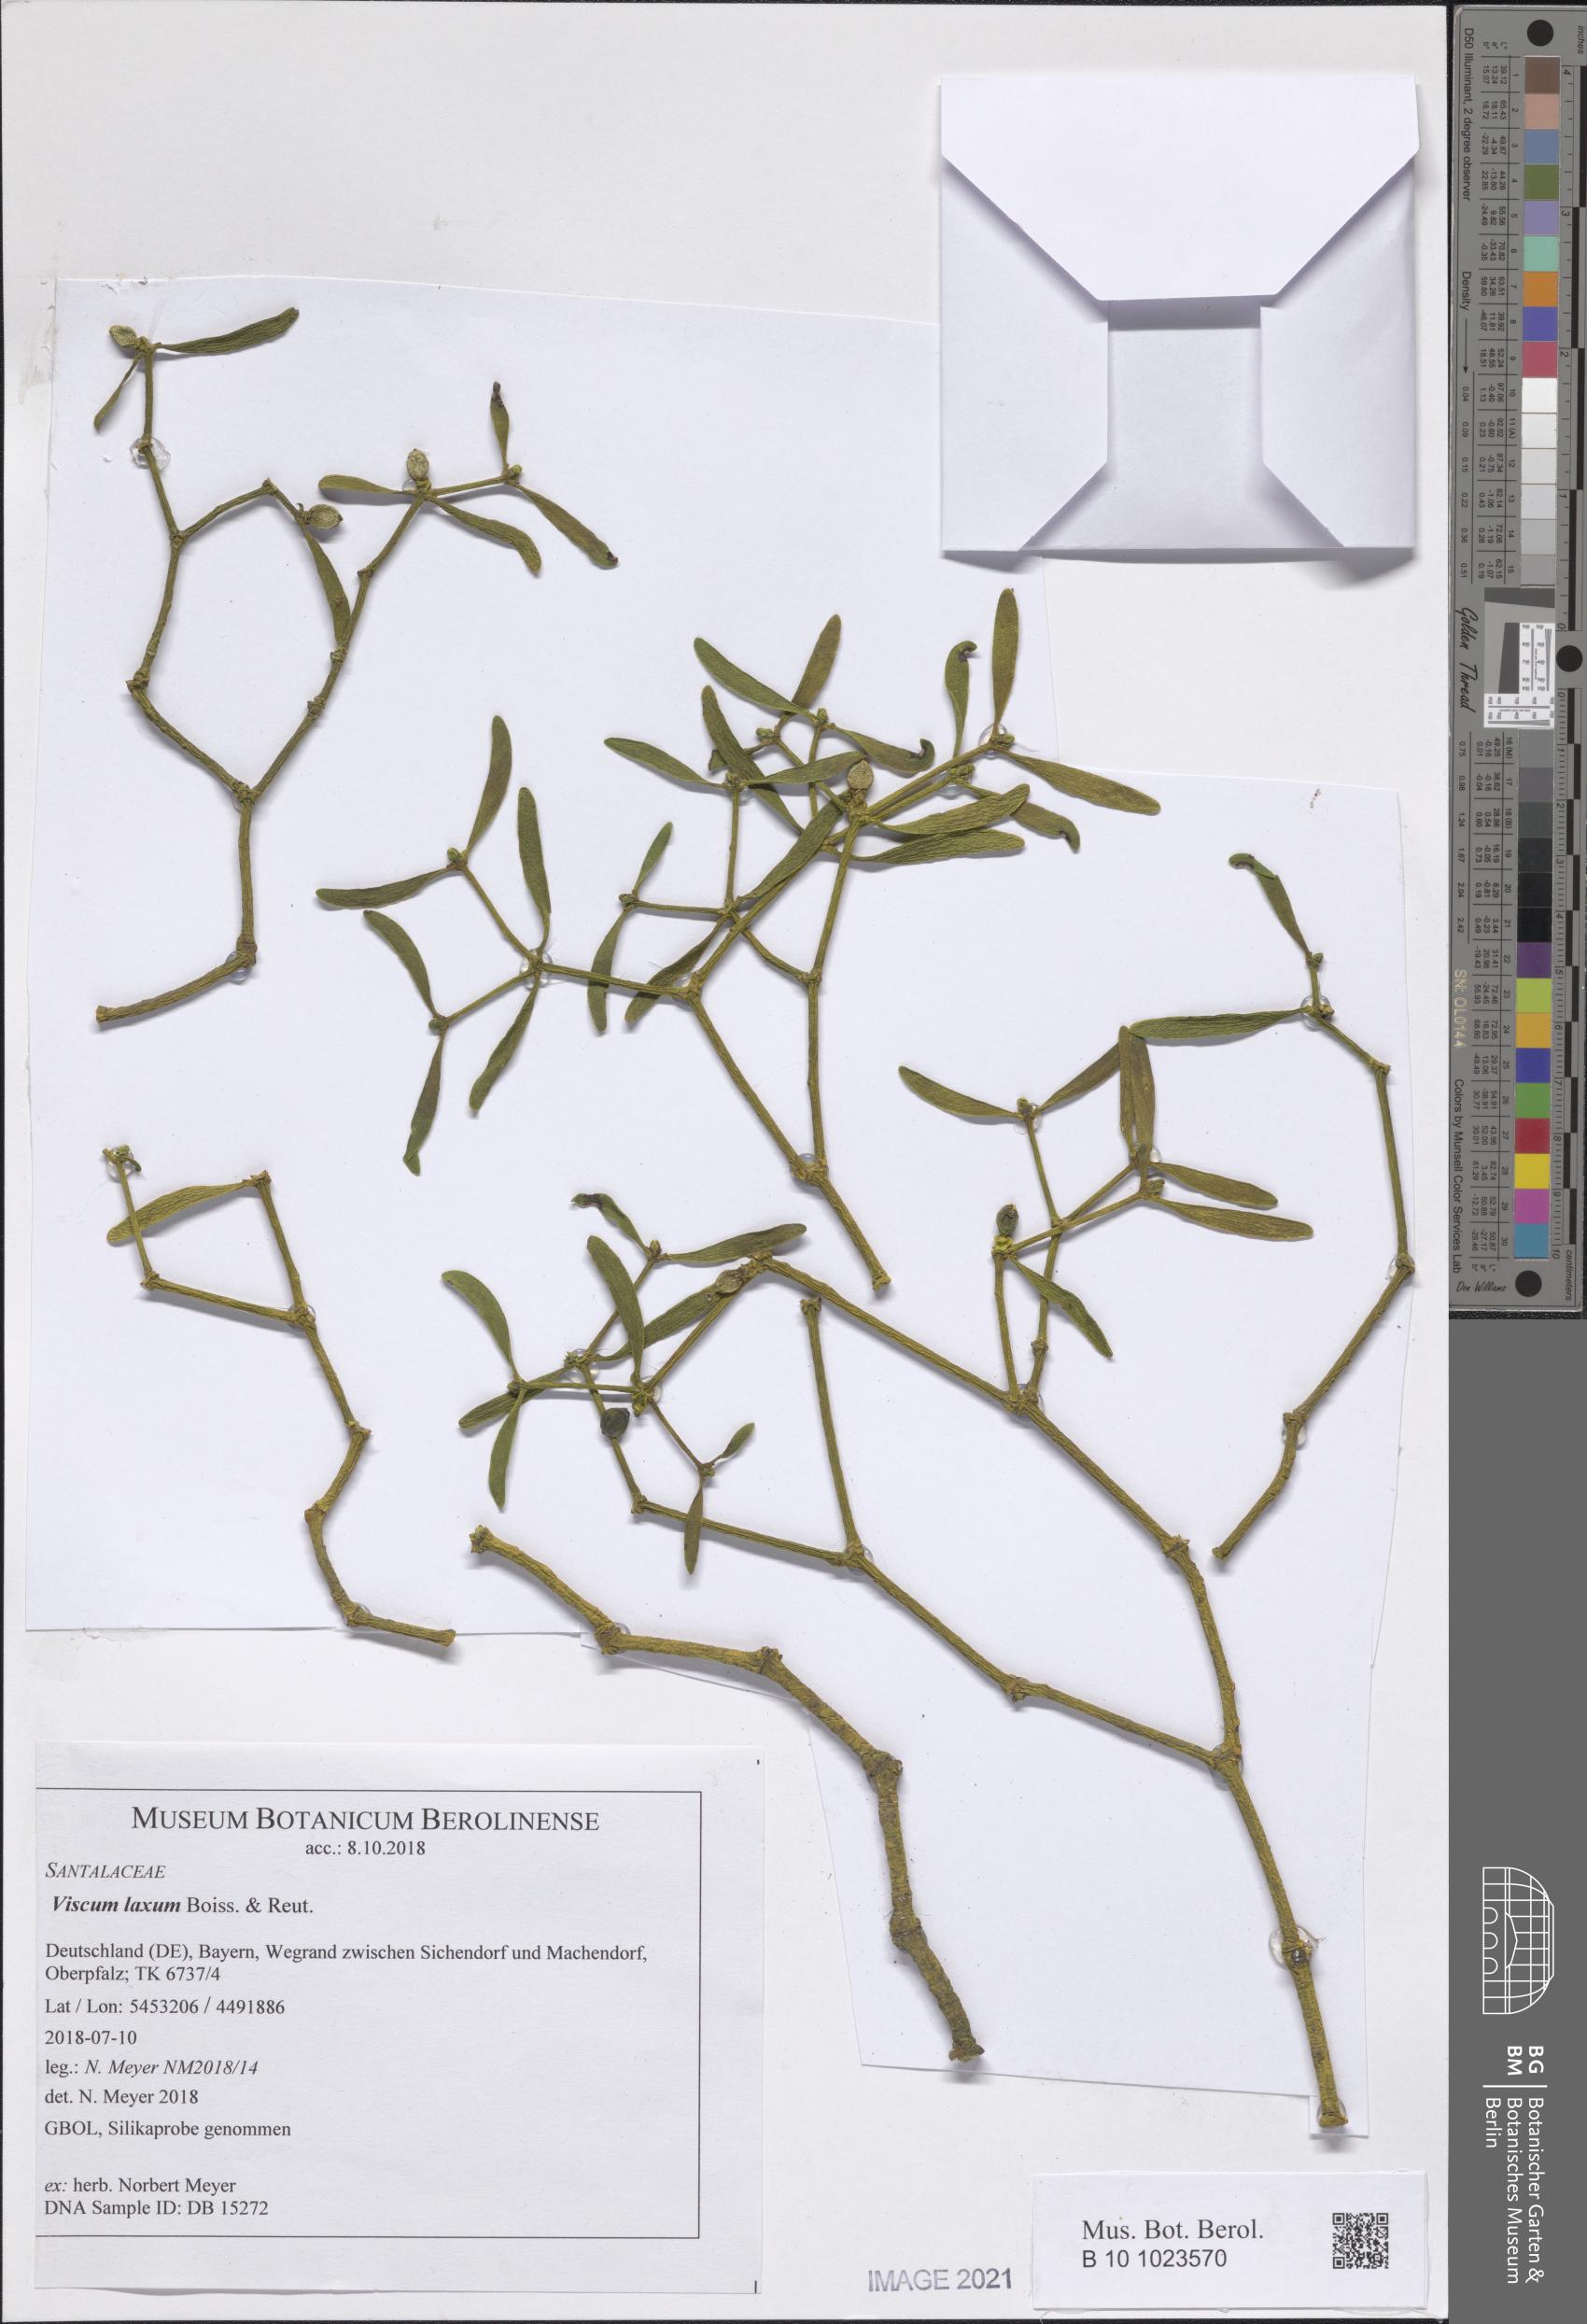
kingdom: Plantae
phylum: Tracheophyta
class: Magnoliopsida
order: Santalales
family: Viscaceae
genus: Viscum
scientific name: Viscum laxum
